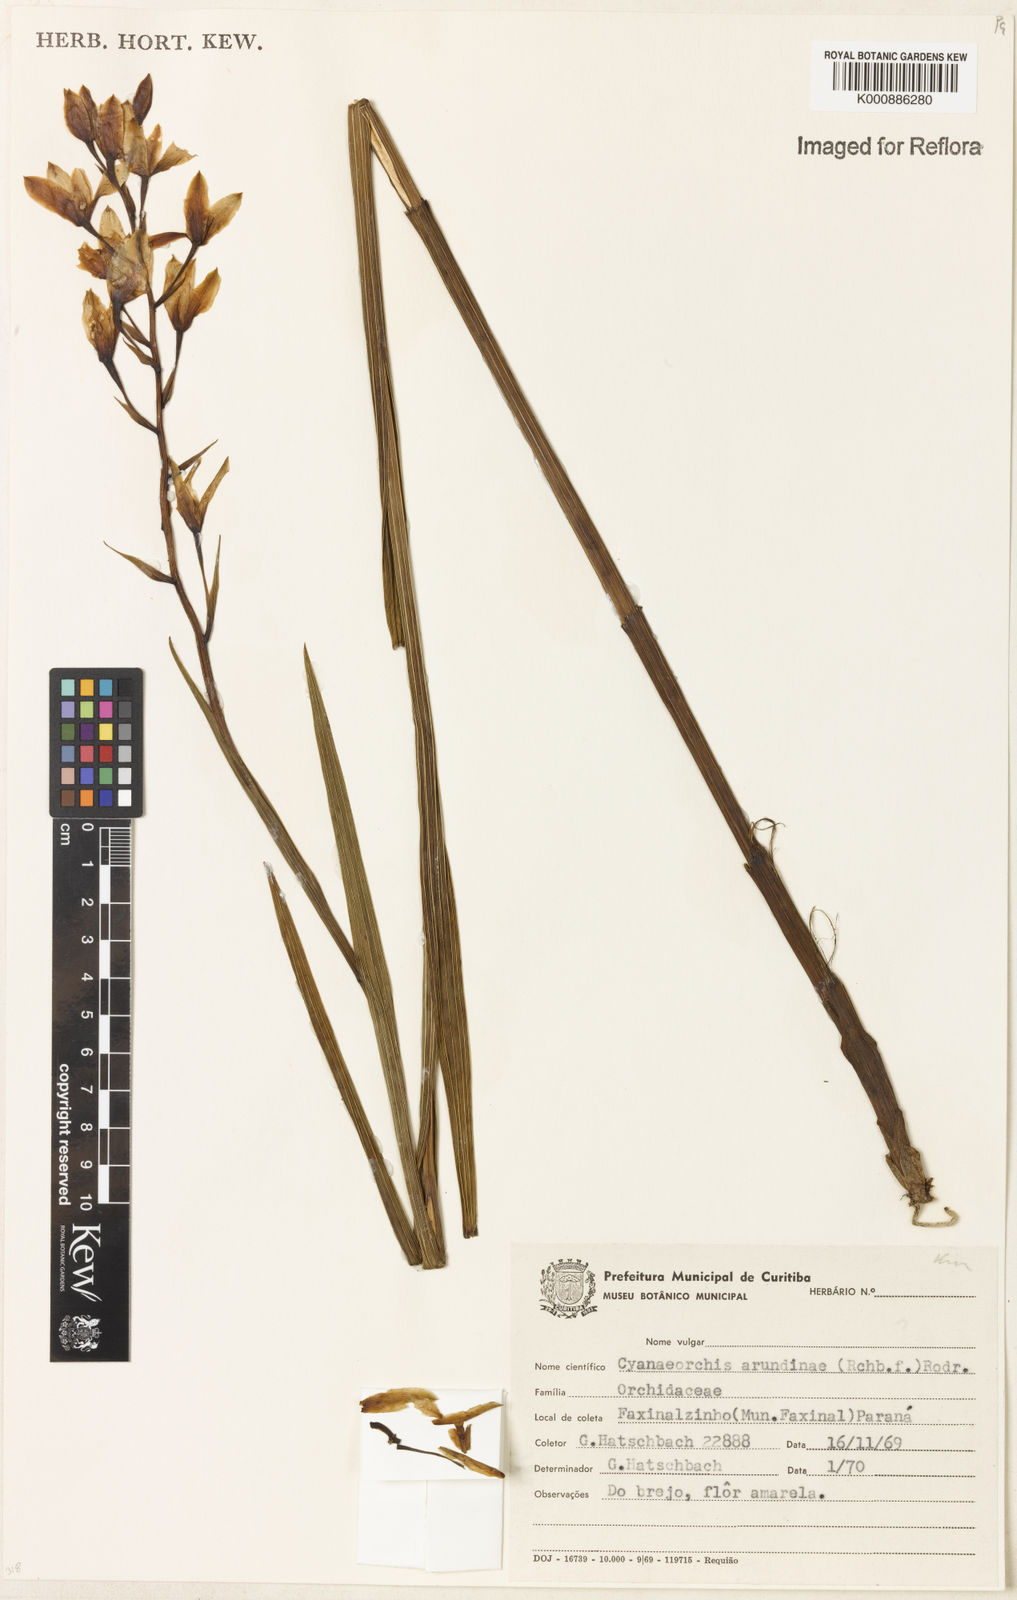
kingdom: Plantae
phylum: Tracheophyta
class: Liliopsida
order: Asparagales
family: Orchidaceae
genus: Cyanaeorchis
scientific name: Cyanaeorchis arundinae
